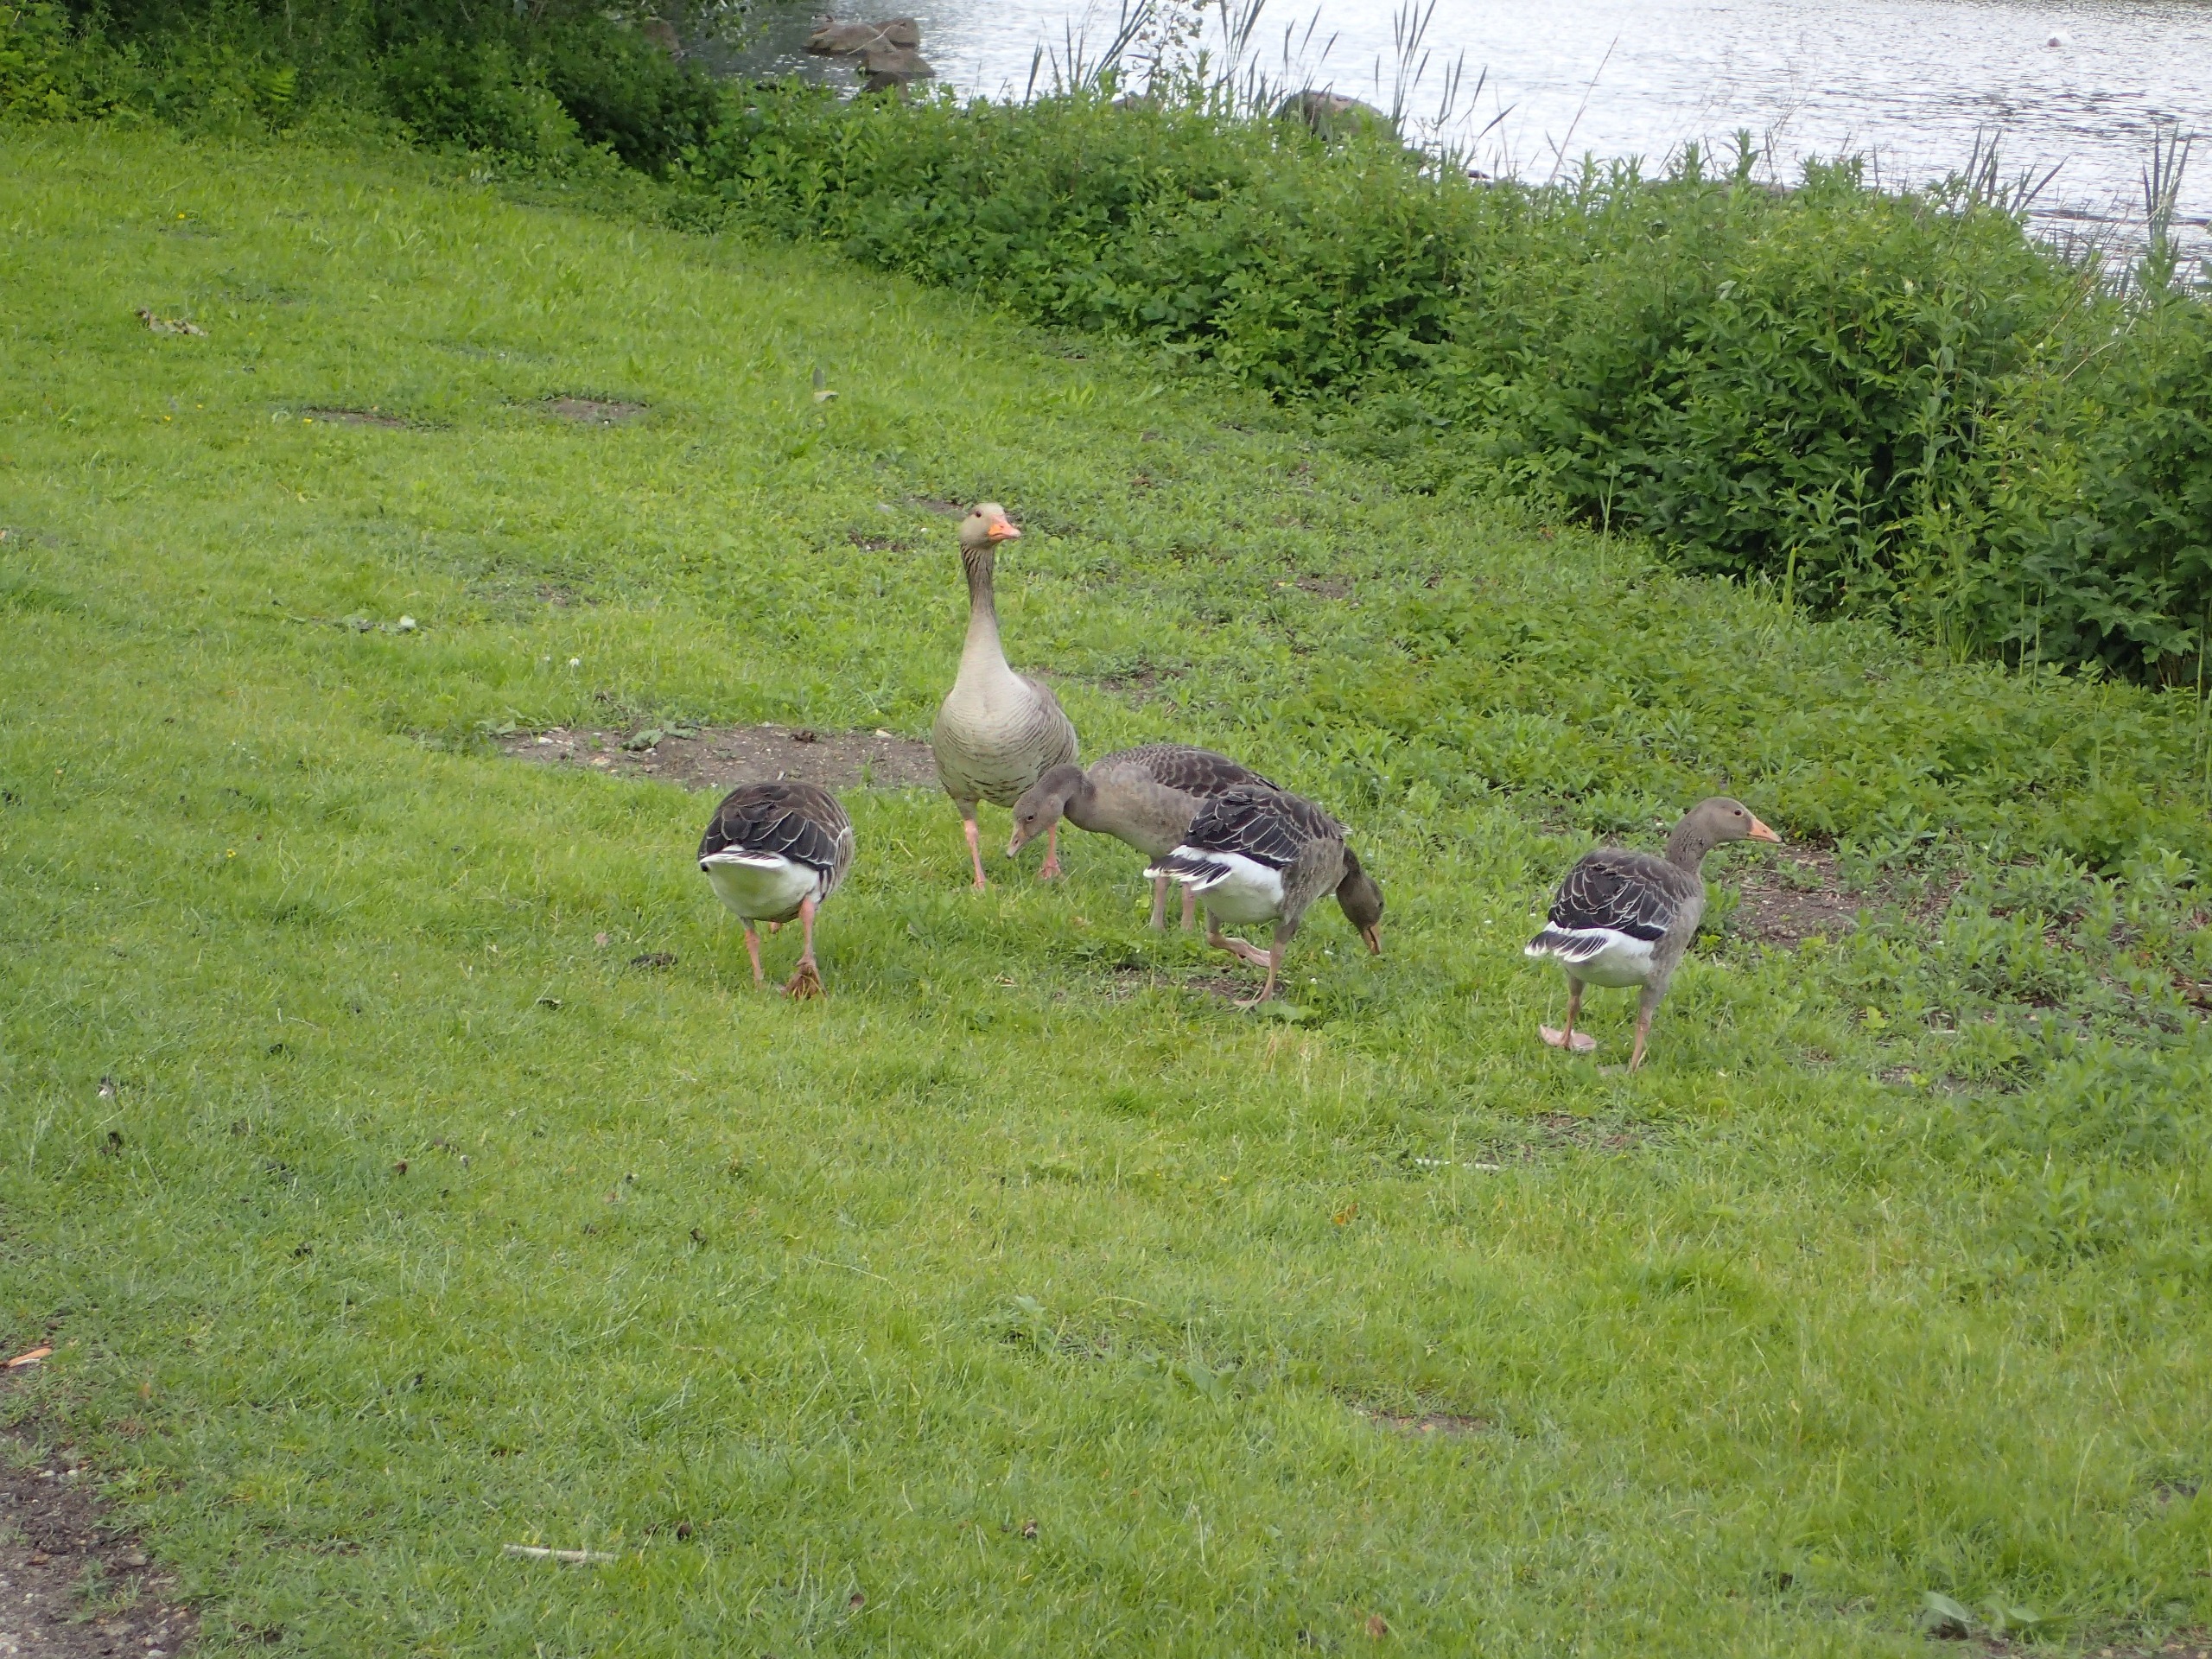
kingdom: Animalia
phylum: Chordata
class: Aves
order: Anseriformes
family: Anatidae
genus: Anser
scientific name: Anser anser
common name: Grågås
